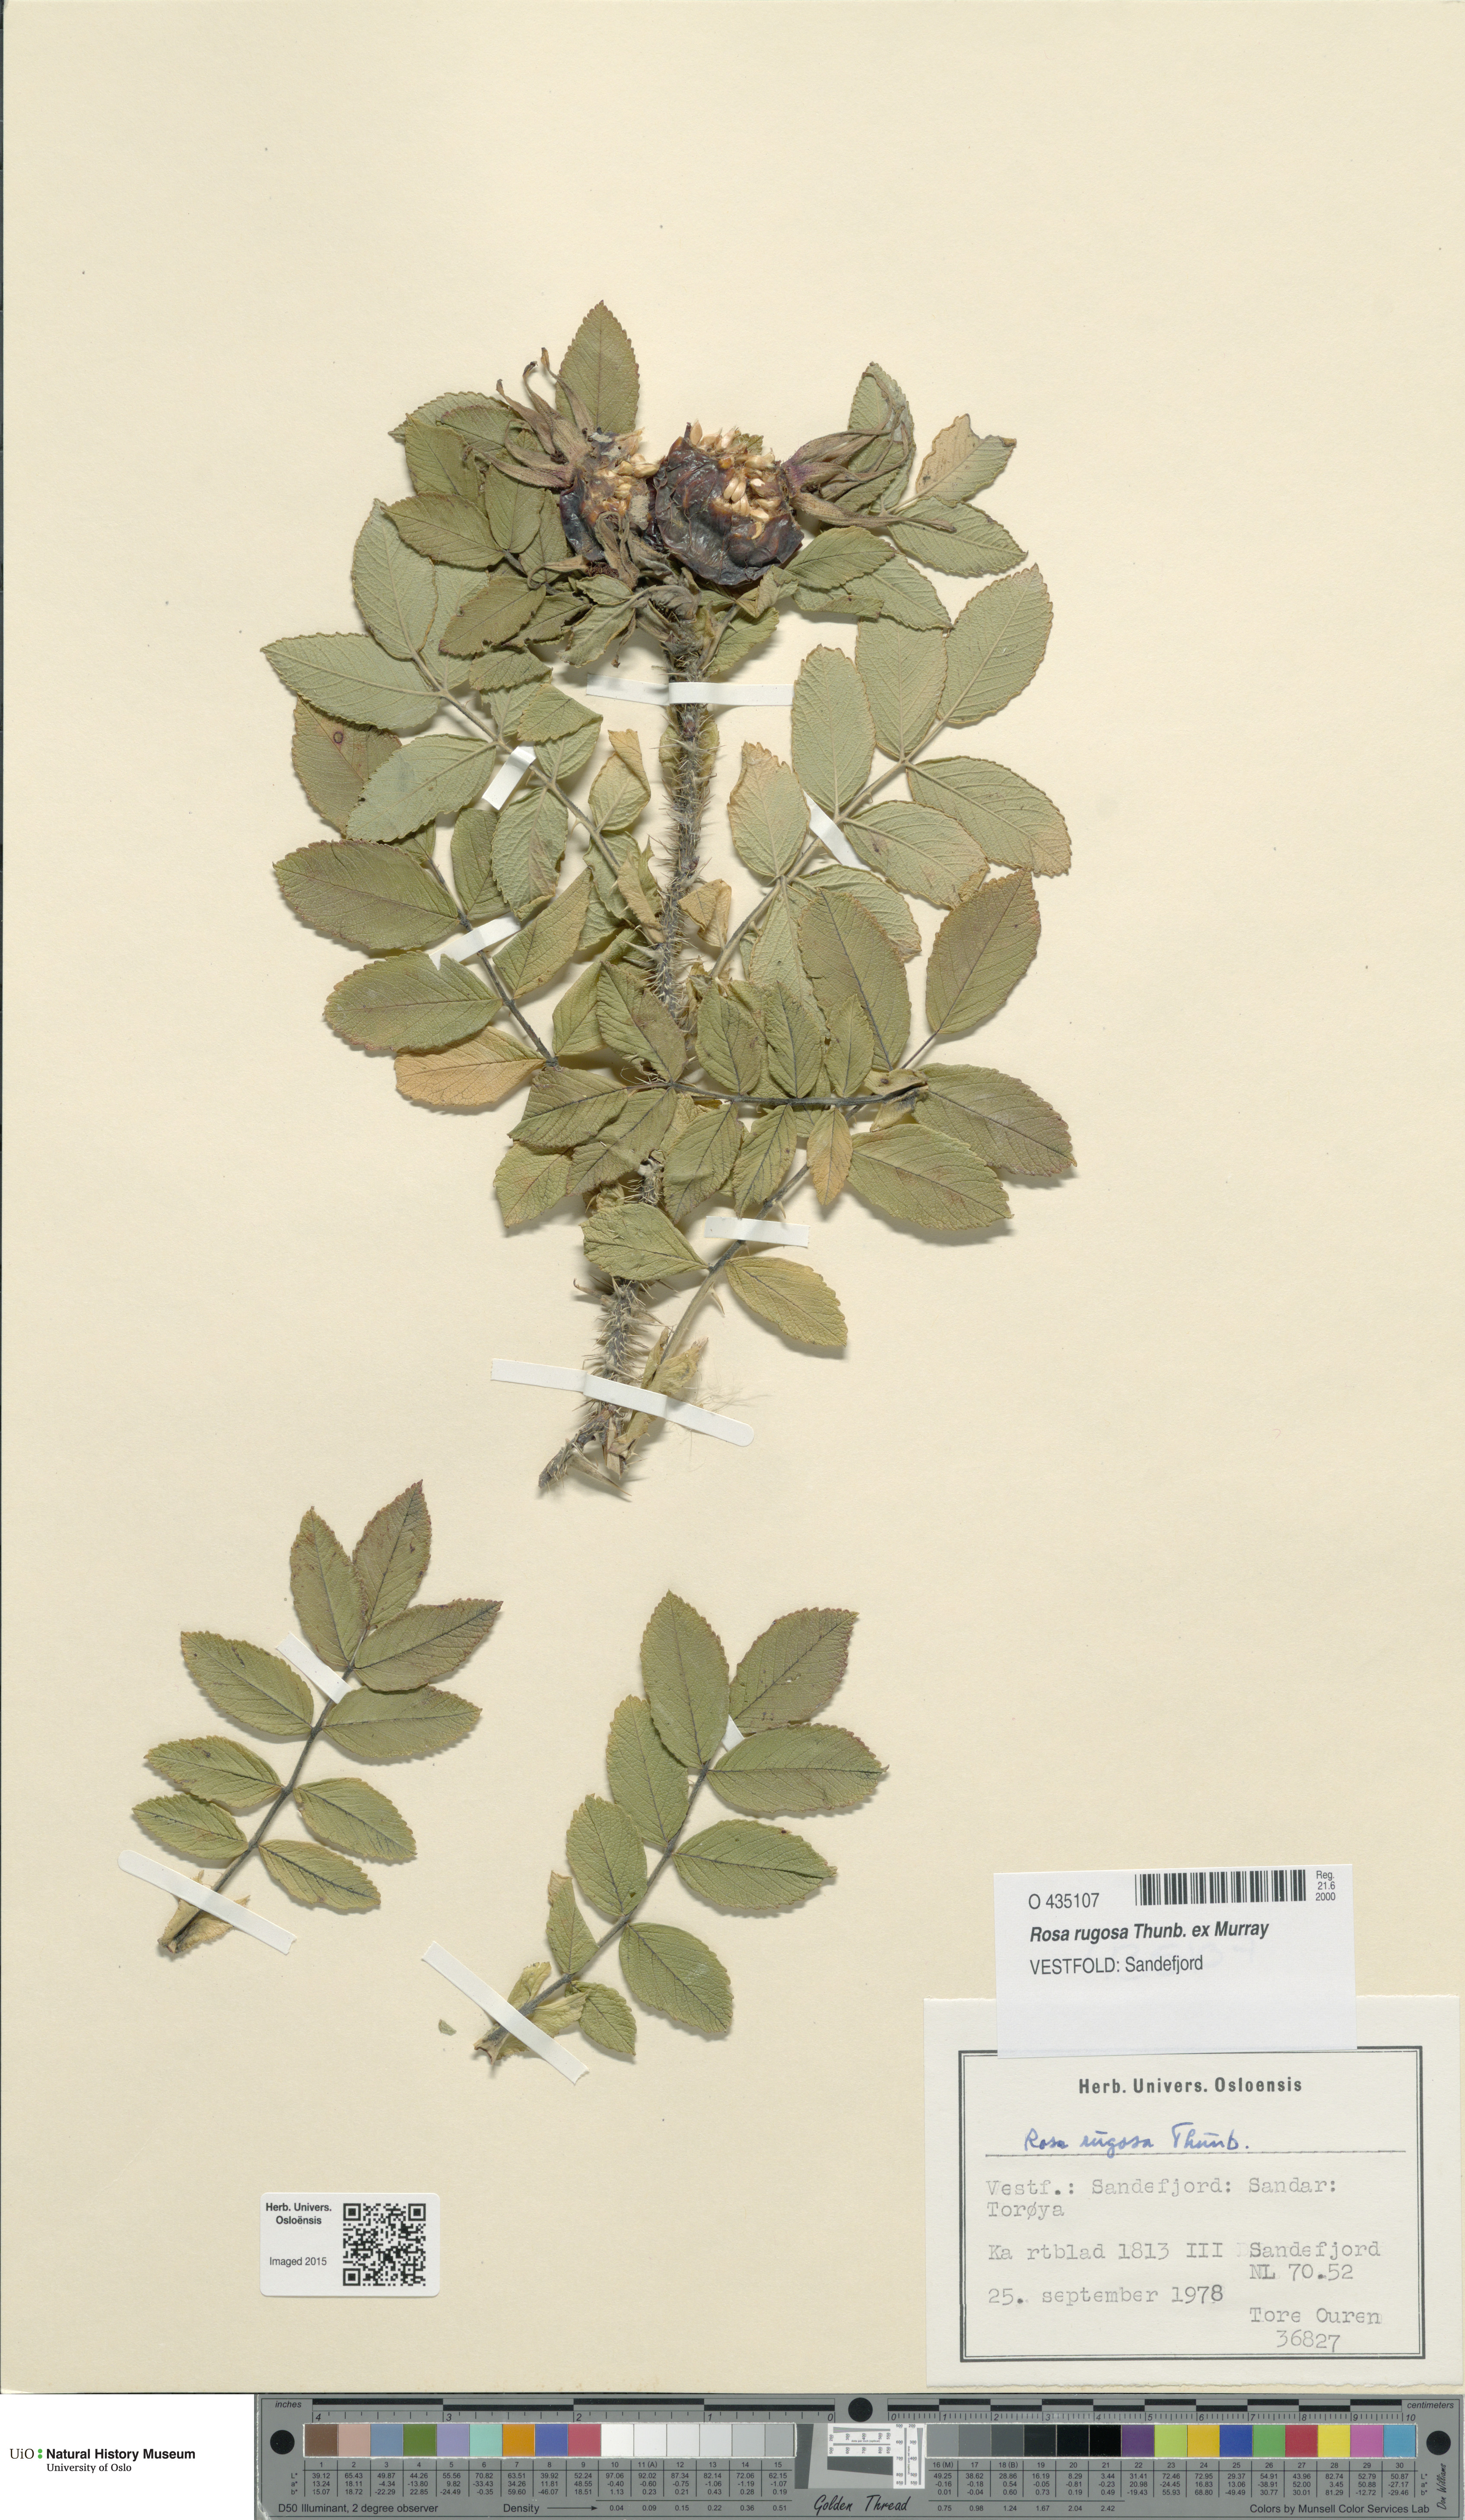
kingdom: Plantae
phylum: Tracheophyta
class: Magnoliopsida
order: Rosales
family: Rosaceae
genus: Rosa
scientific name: Rosa rugosa
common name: Japanese rose
